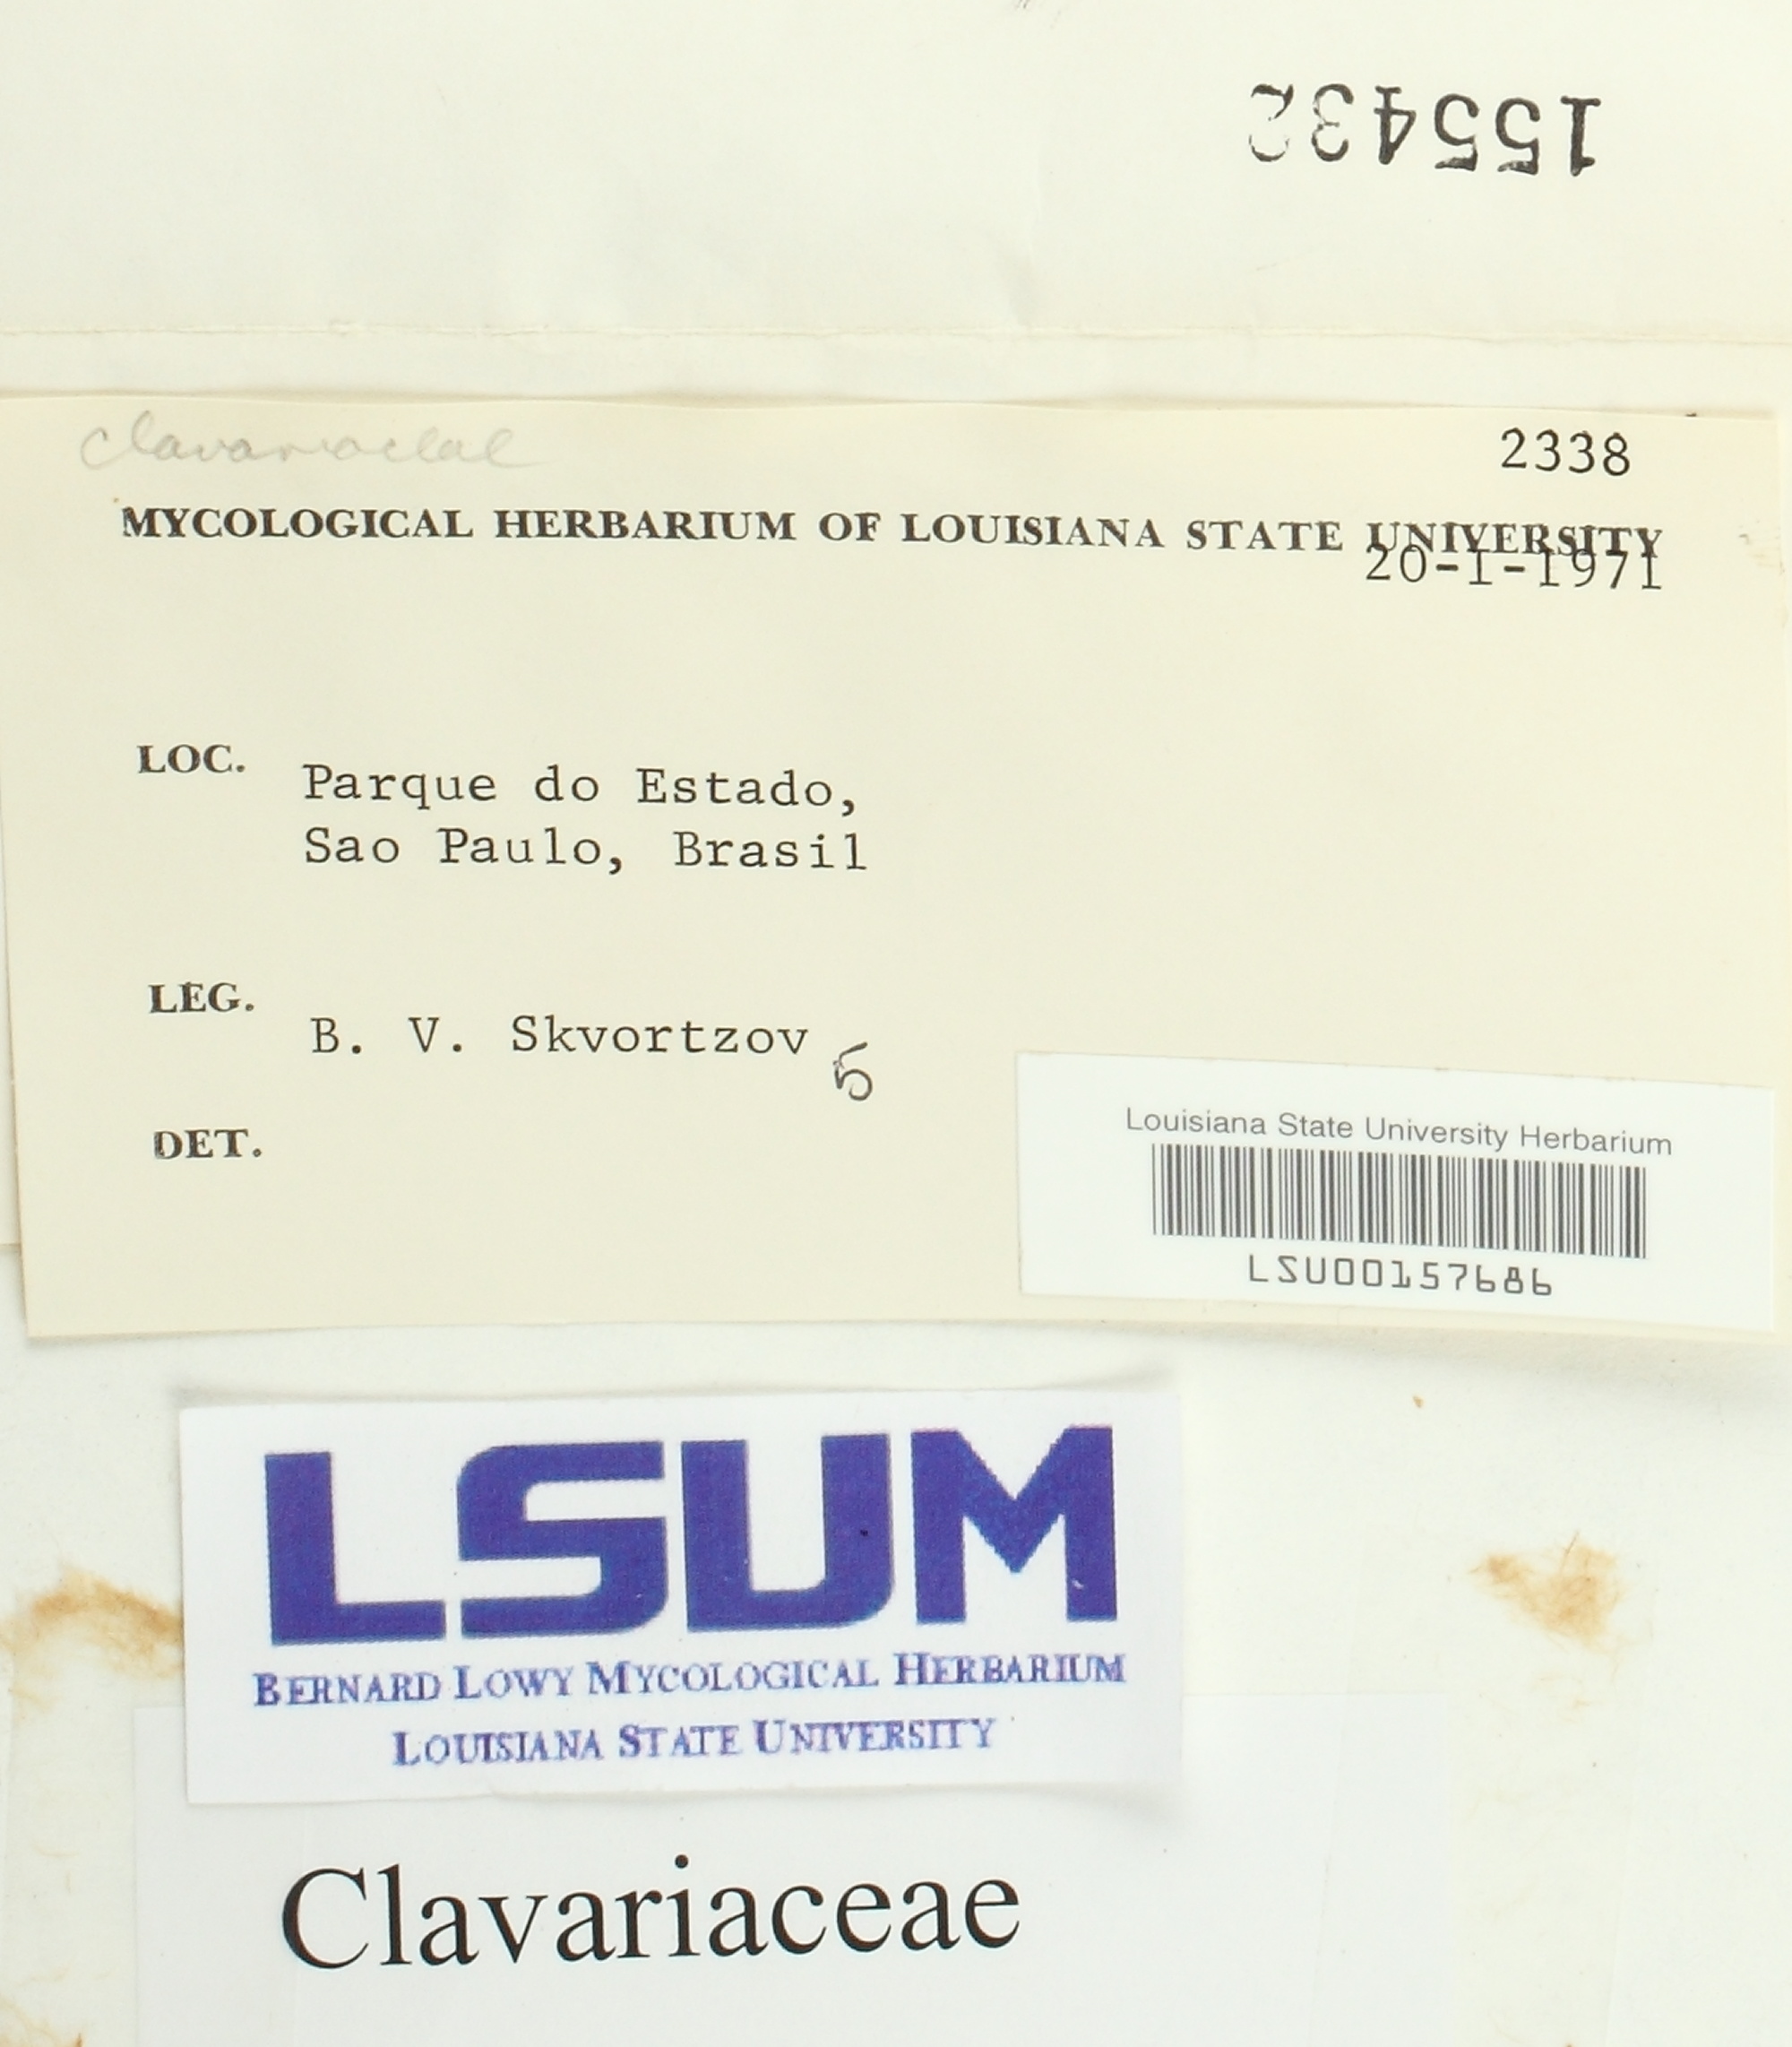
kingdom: Fungi
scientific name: Fungi
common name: Fungi
